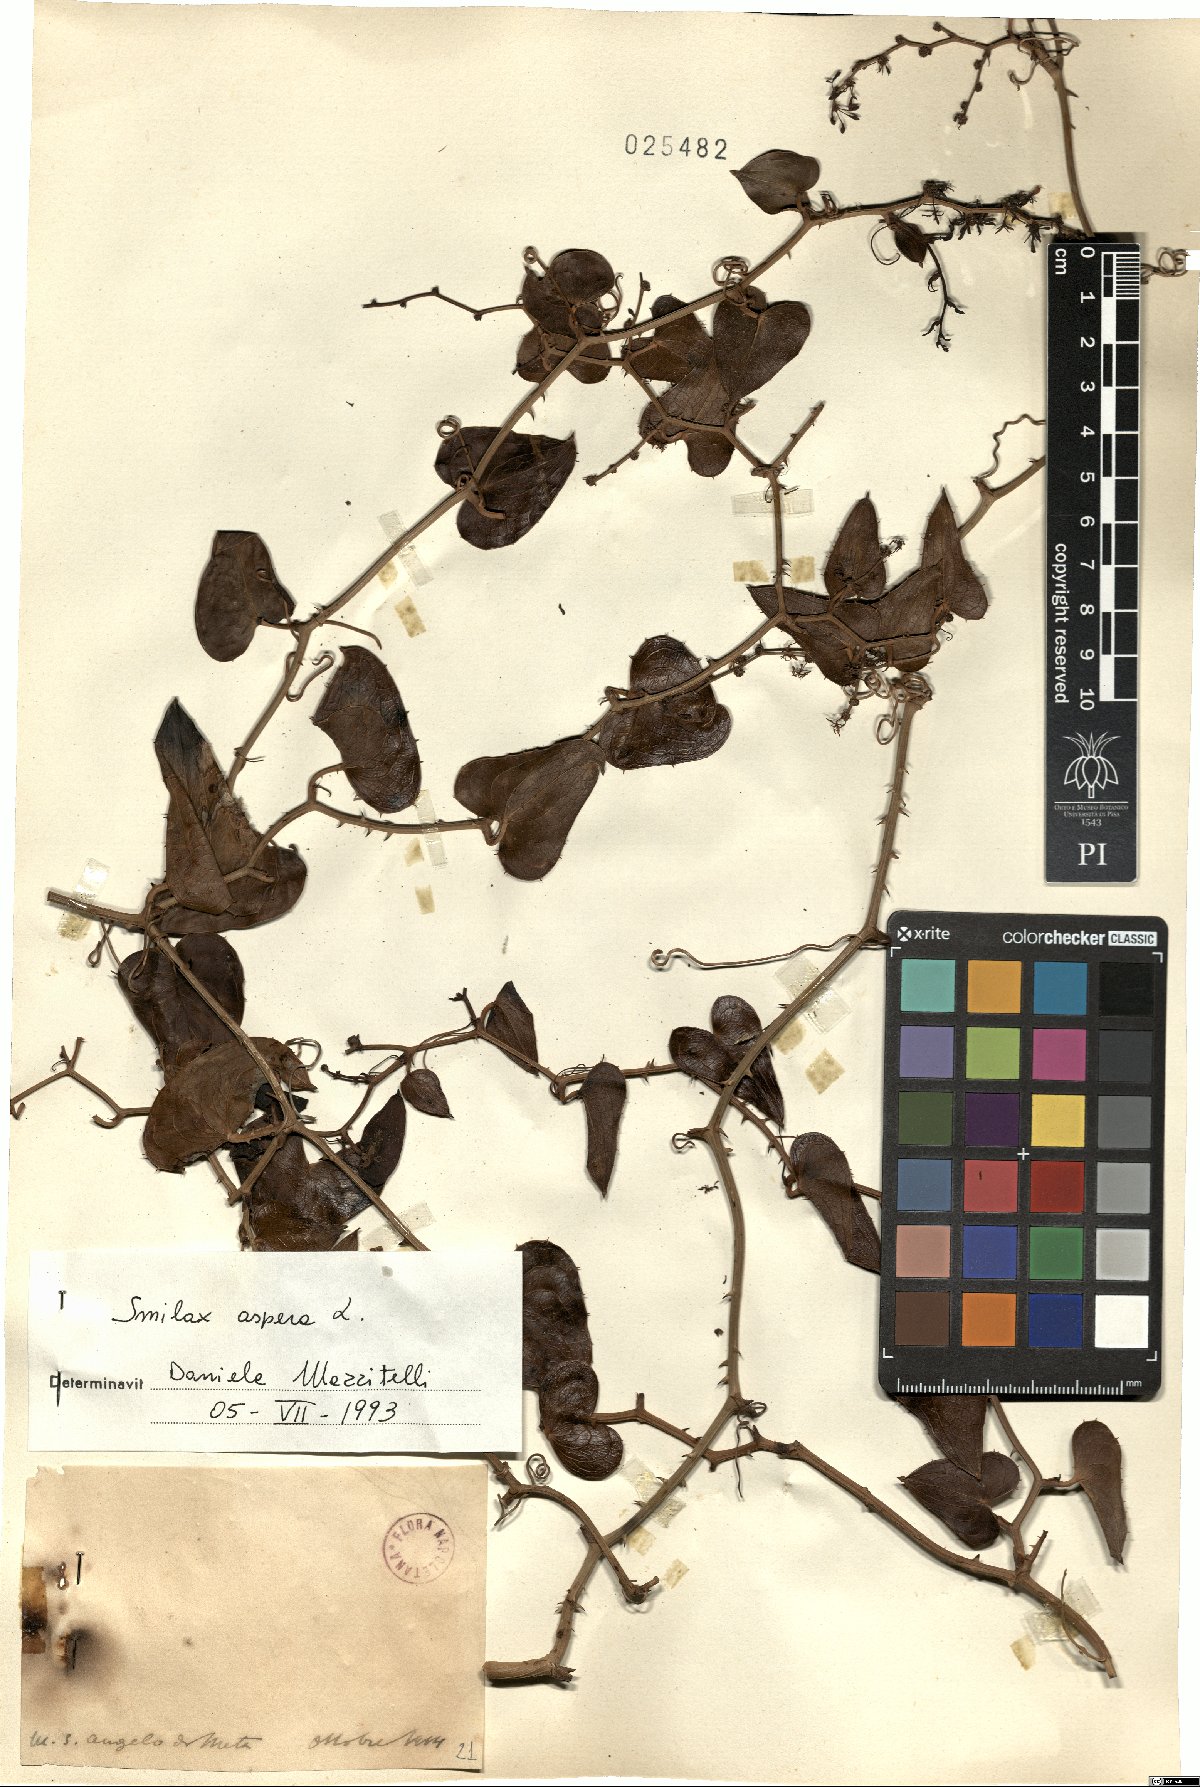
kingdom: Plantae
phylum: Tracheophyta
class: Liliopsida
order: Liliales
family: Smilacaceae
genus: Smilax
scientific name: Smilax aspera
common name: Common smilax
